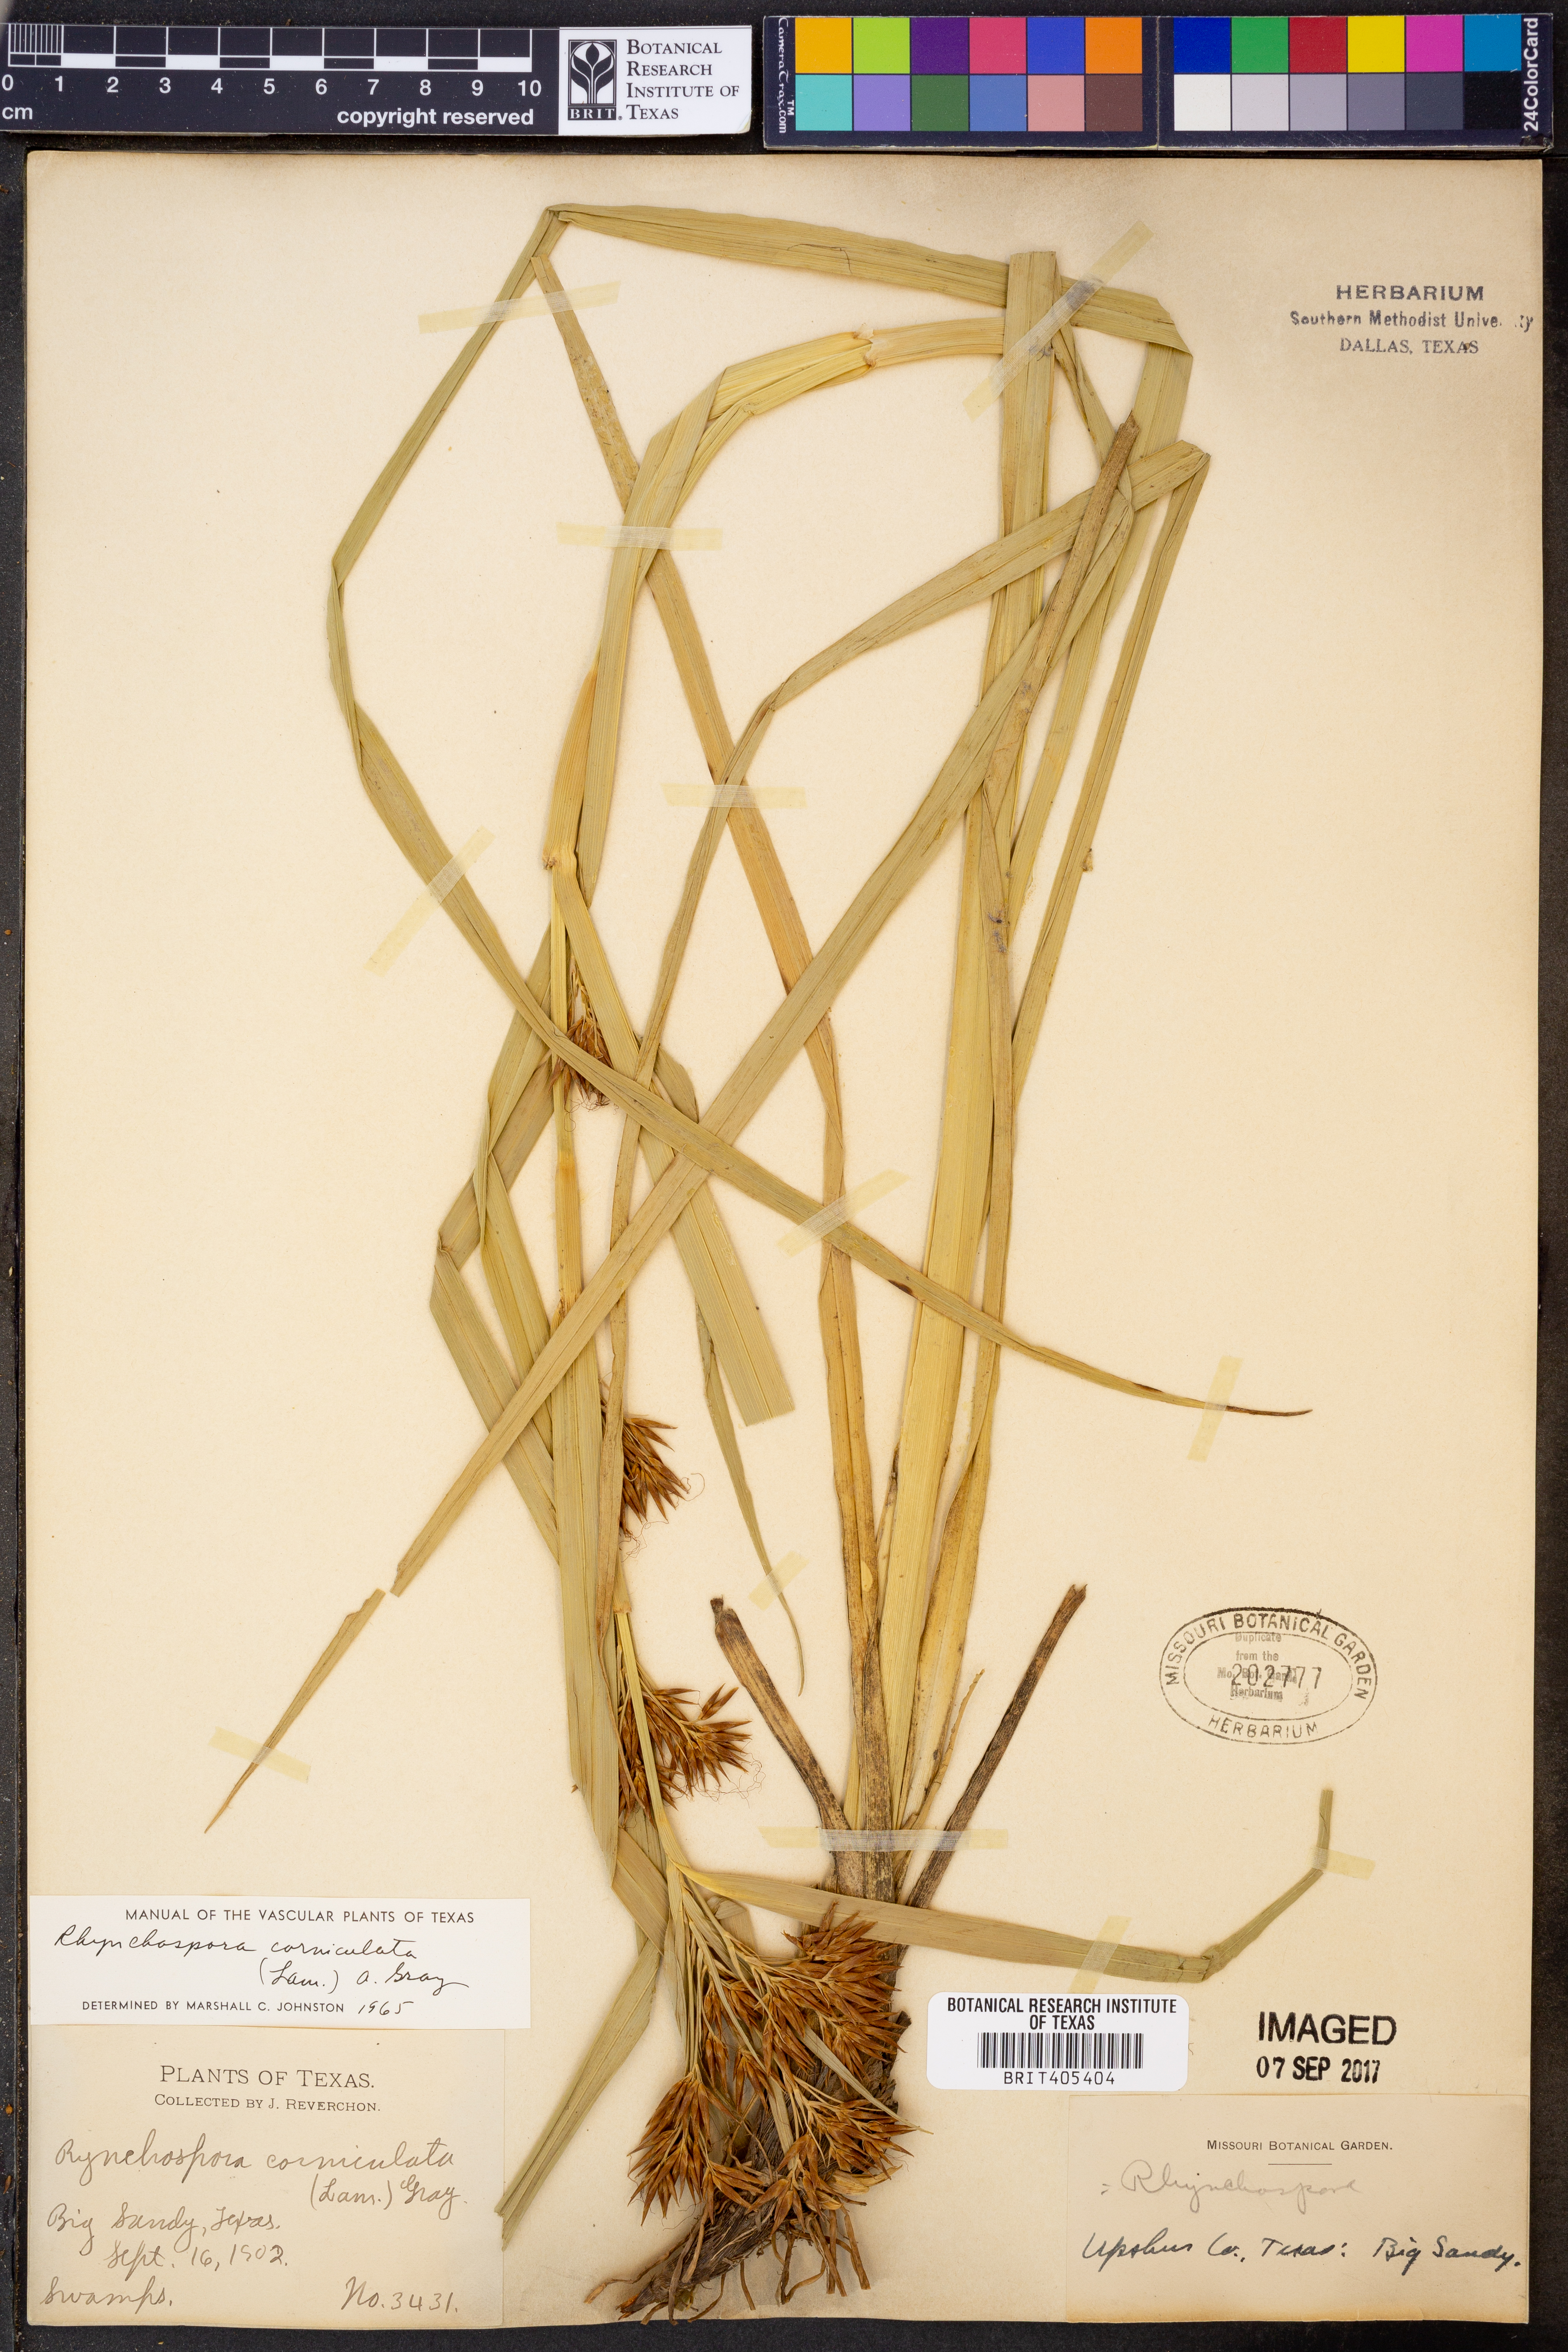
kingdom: Plantae
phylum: Tracheophyta
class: Liliopsida
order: Poales
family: Cyperaceae
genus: Rhynchospora
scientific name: Rhynchospora corniculata
